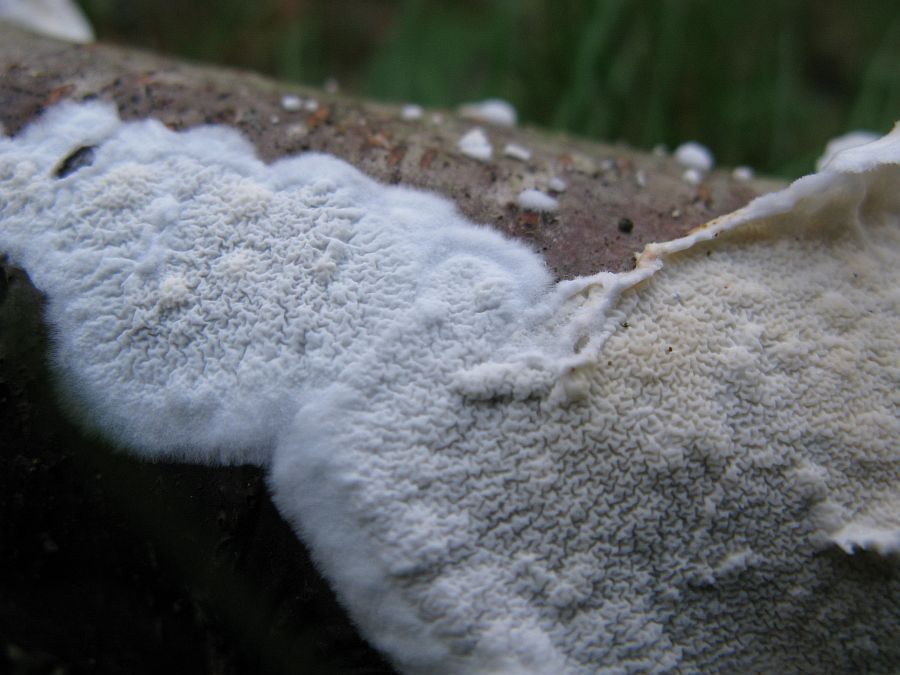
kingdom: Fungi
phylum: Basidiomycota
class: Agaricomycetes
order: Polyporales
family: Irpicaceae
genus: Byssomerulius
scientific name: Byssomerulius corium
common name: læder-åresvamp
